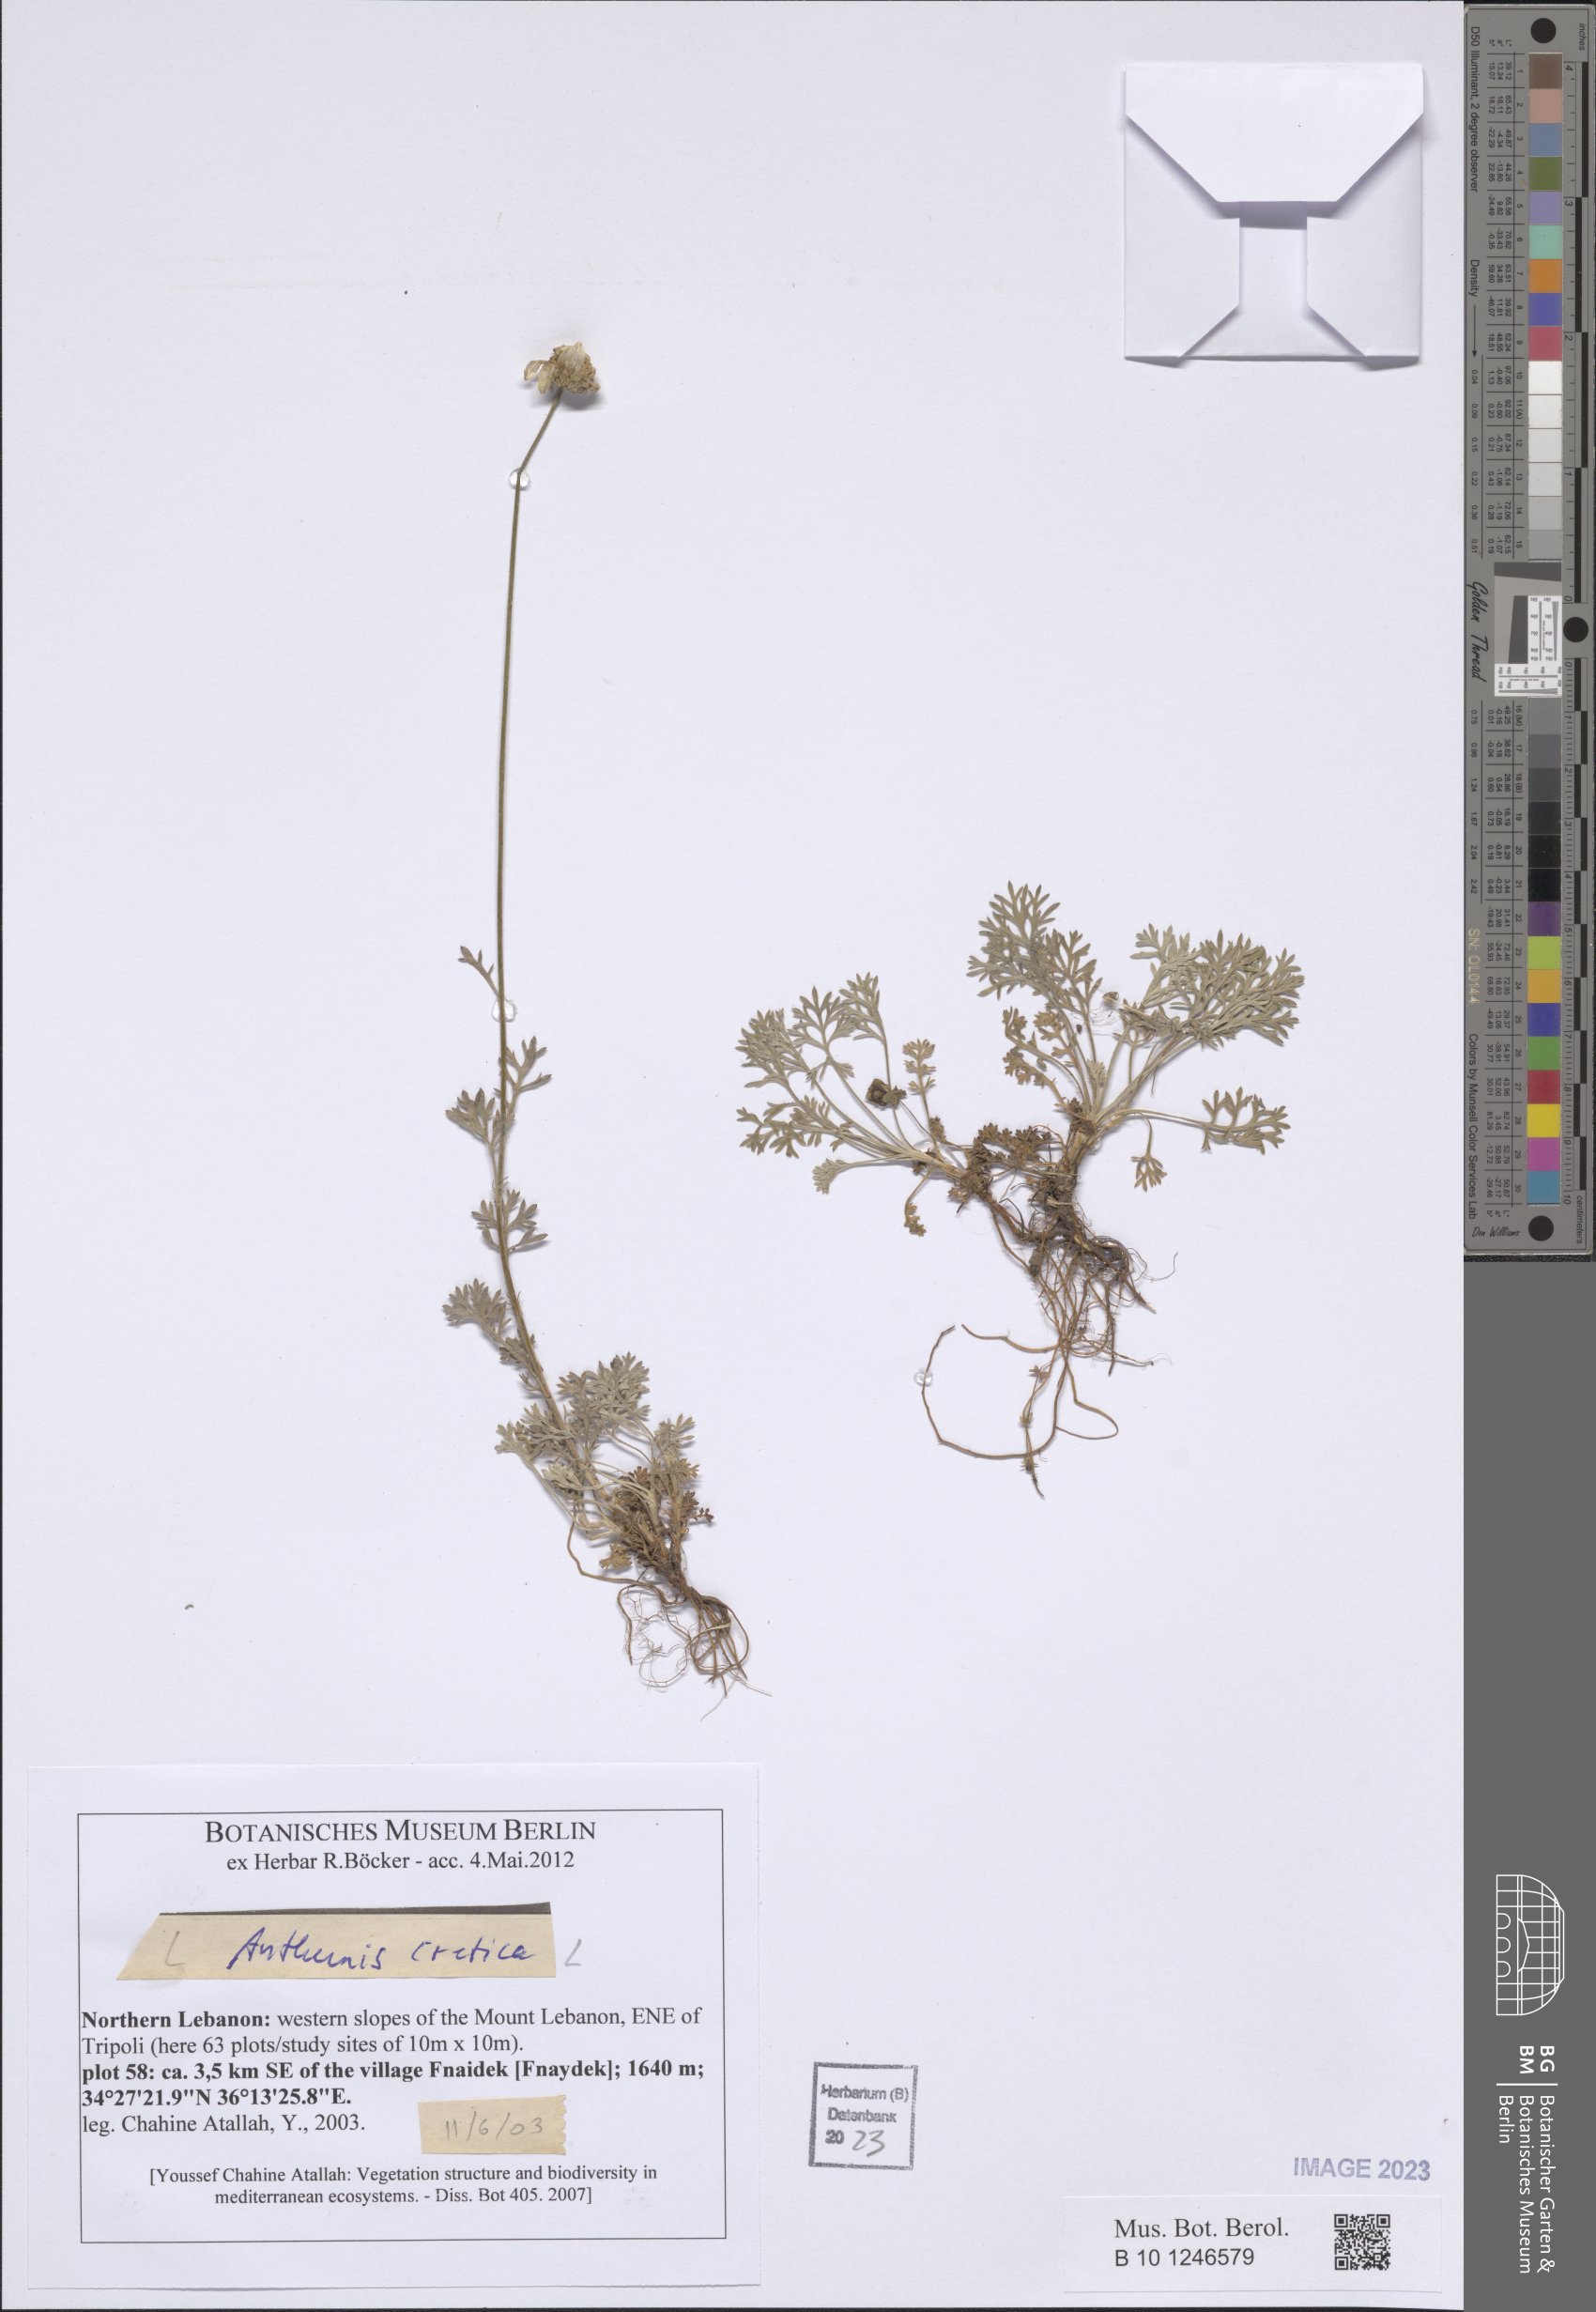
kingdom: Plantae
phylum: Tracheophyta
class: Magnoliopsida
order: Asterales
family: Asteraceae
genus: Anthemis
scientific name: Anthemis cretica
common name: Mountain dog-daisy
